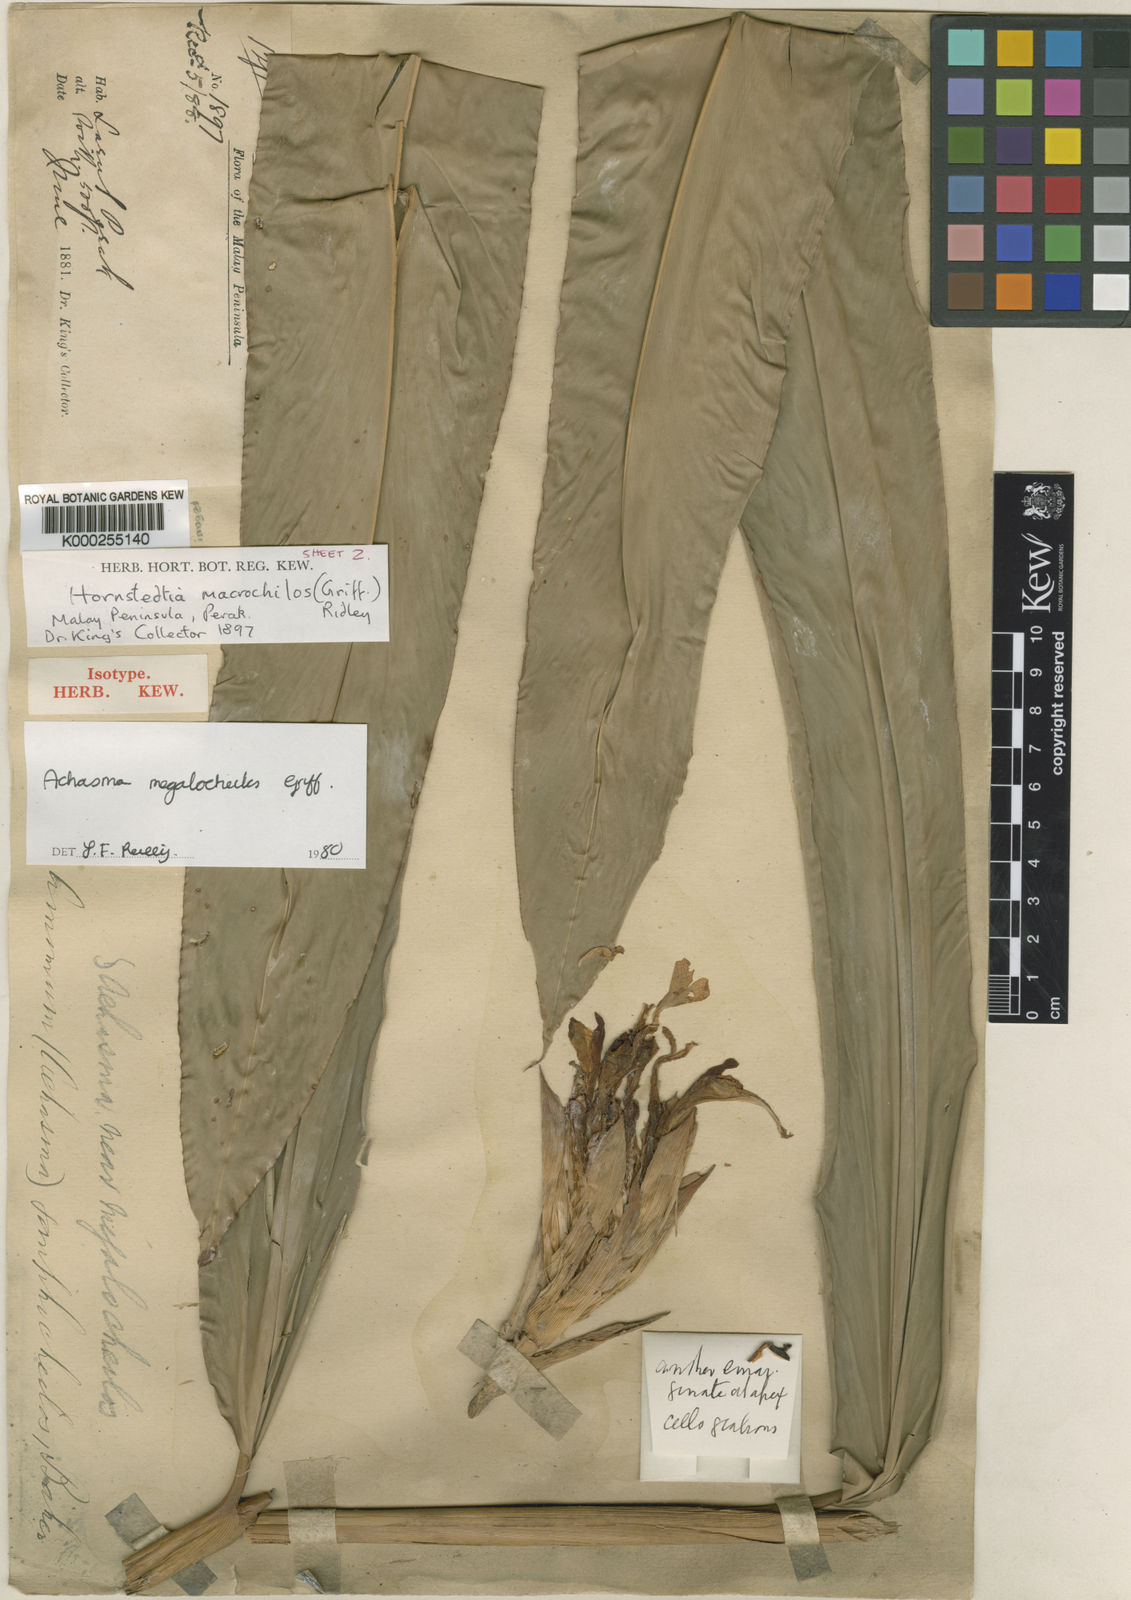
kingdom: Plantae
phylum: Tracheophyta
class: Liliopsida
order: Zingiberales
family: Zingiberaceae
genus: Etlingera
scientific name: Etlingera punicea
